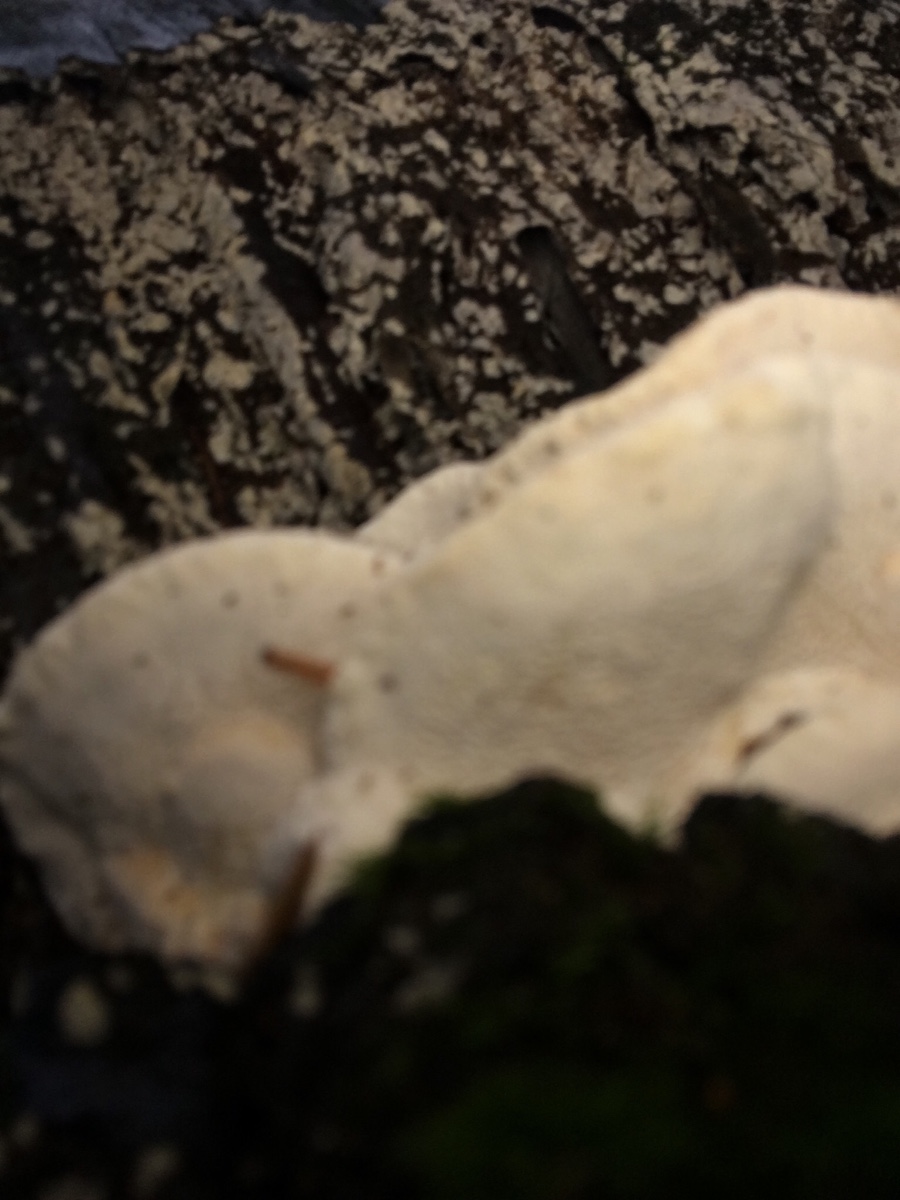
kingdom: Fungi
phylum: Basidiomycota
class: Agaricomycetes
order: Russulales
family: Bondarzewiaceae
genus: Heterobasidion
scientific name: Heterobasidion annosum
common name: almindelig rodfordærver
